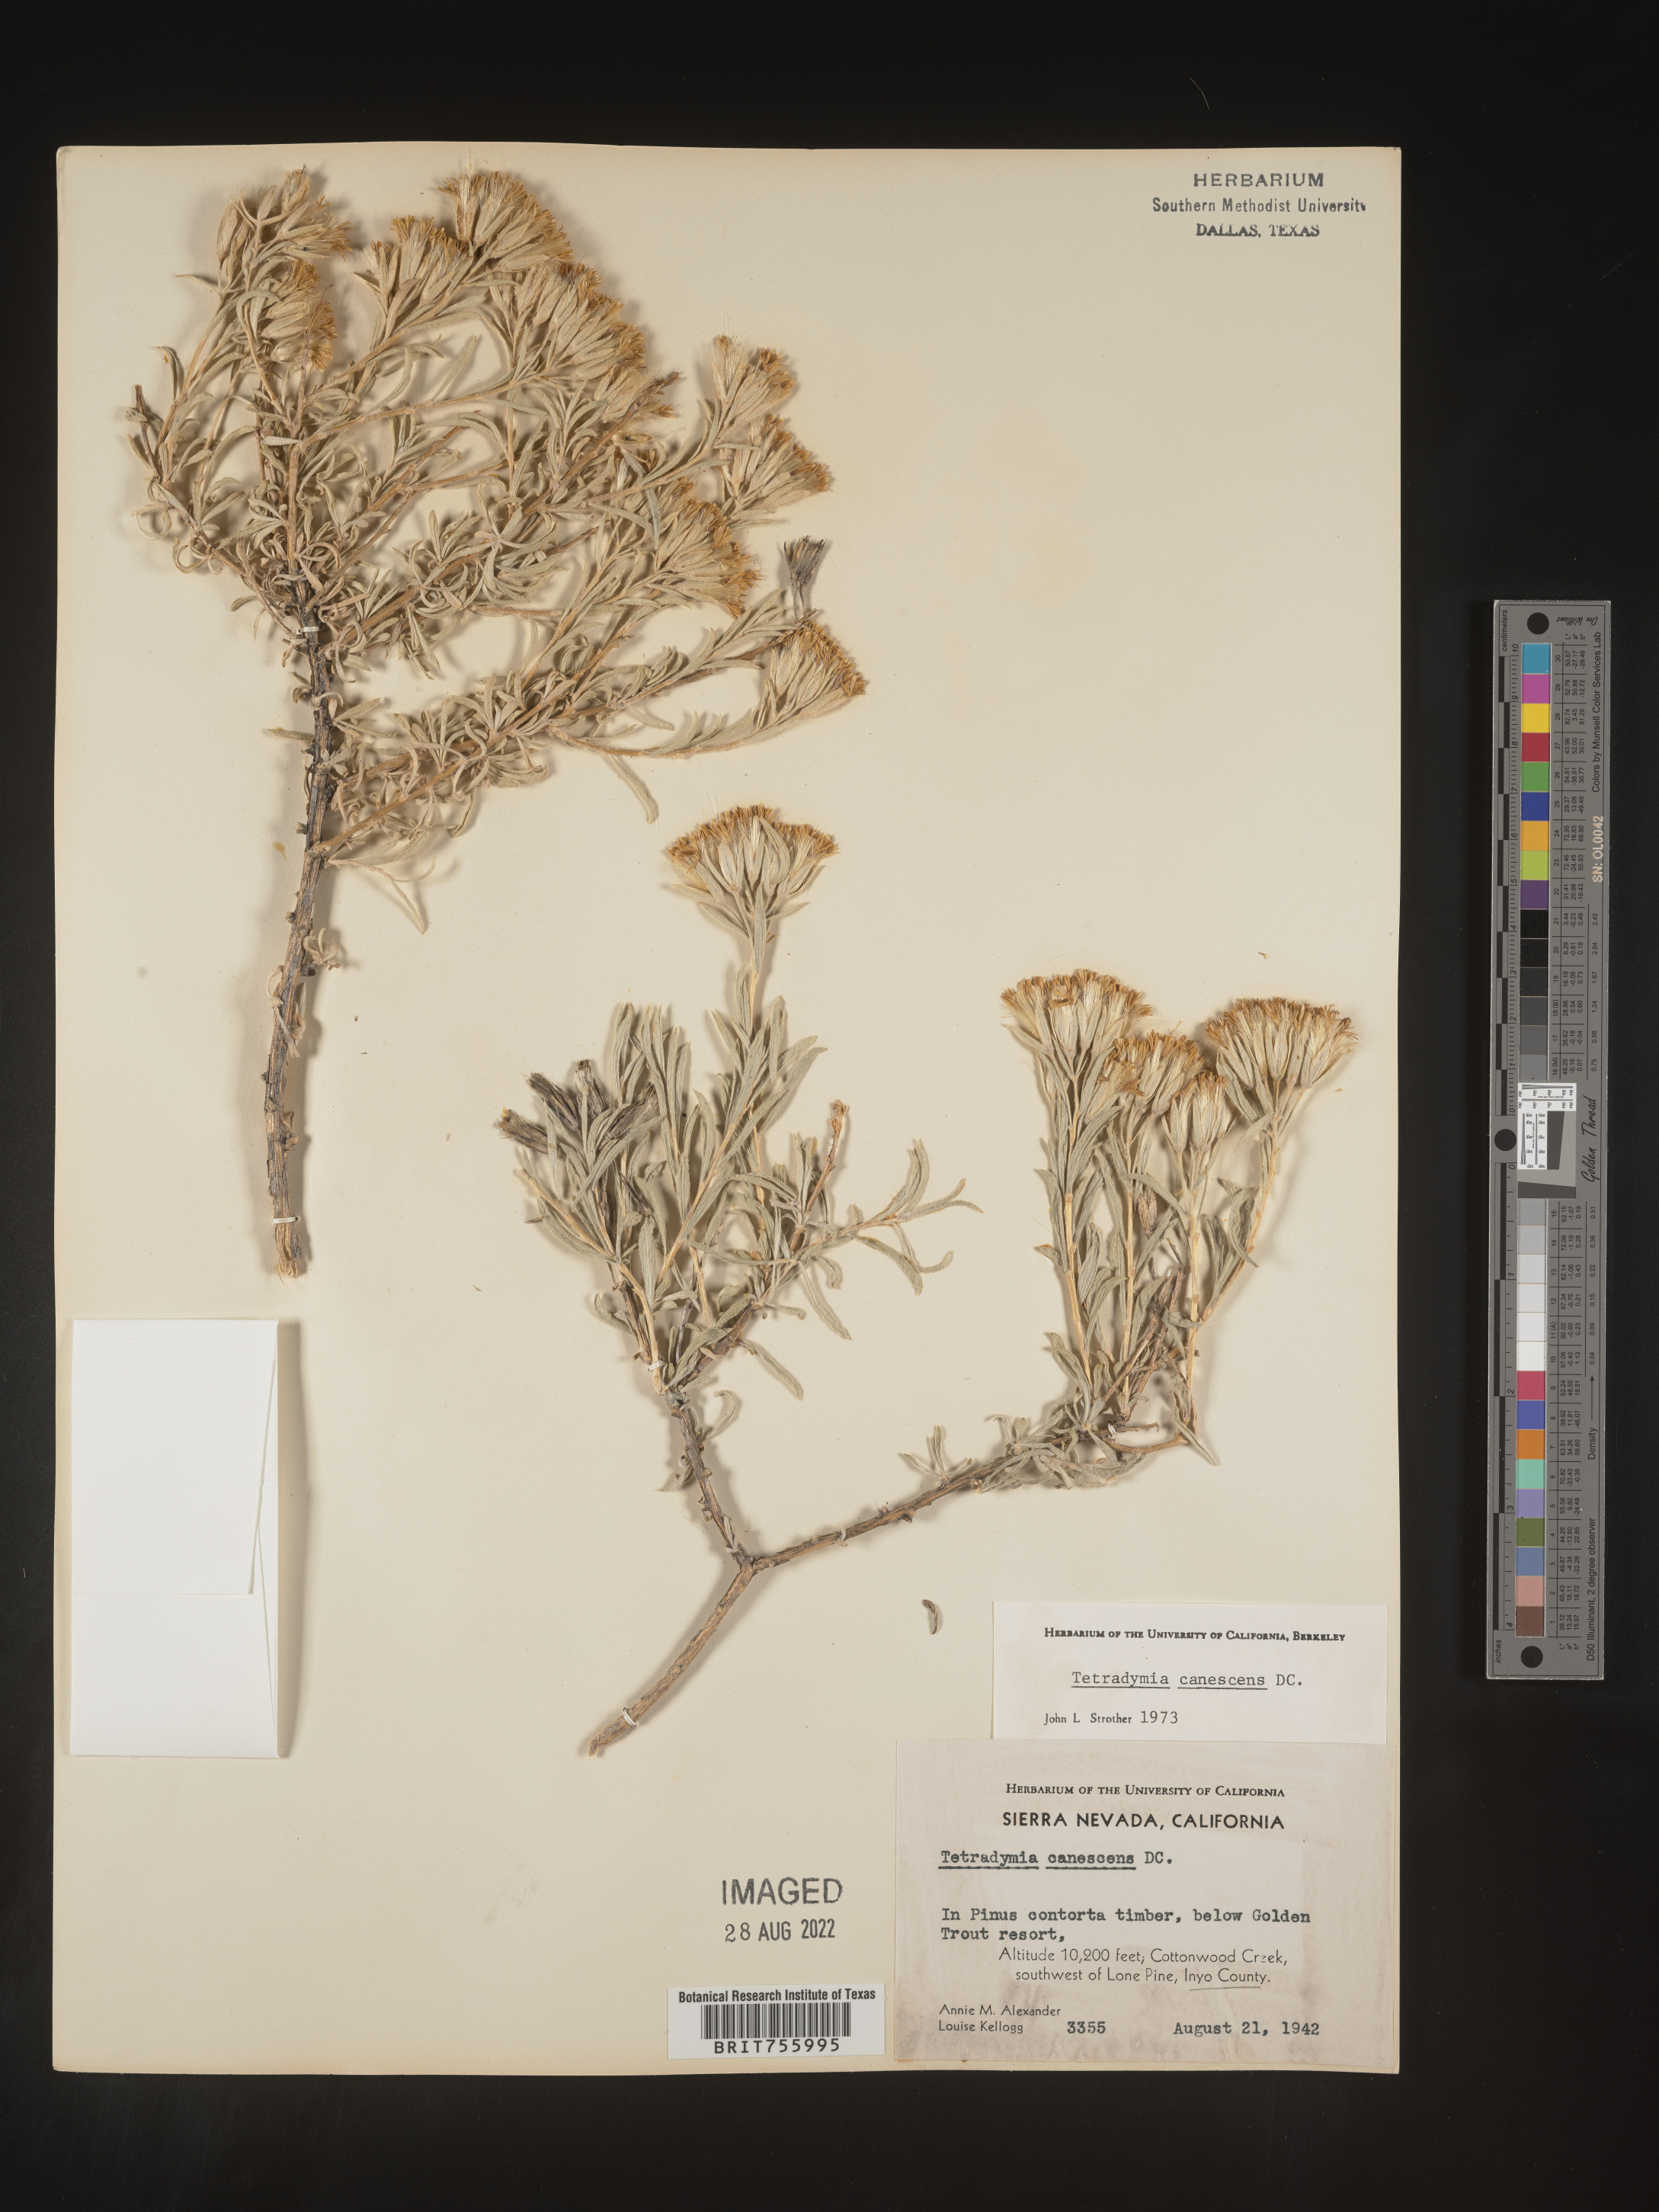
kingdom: Plantae
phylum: Tracheophyta
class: Magnoliopsida
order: Asterales
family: Asteraceae
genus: Tetradymia
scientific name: Tetradymia canescens
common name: Spineless horsebrush
